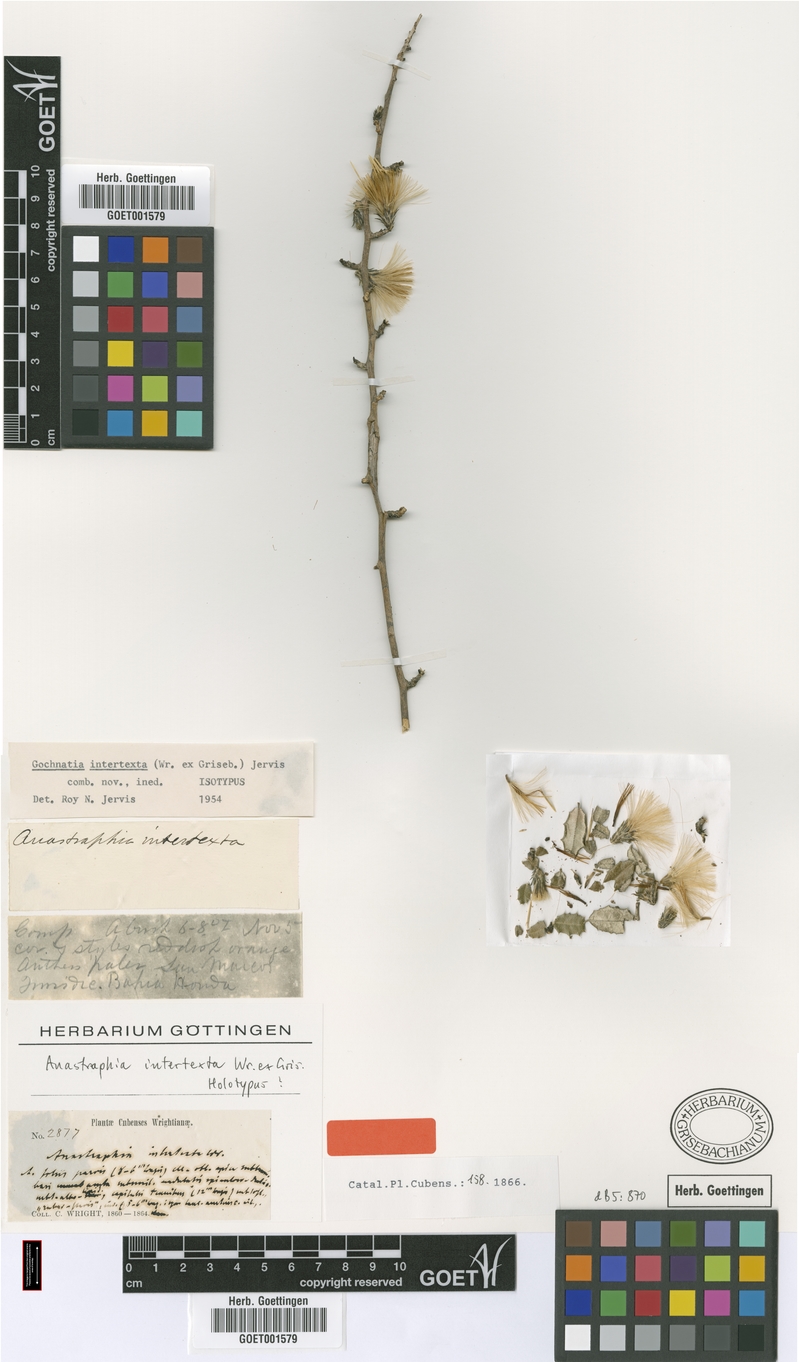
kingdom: Plantae
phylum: Tracheophyta
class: Magnoliopsida
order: Asterales
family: Asteraceae
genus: Anastraphia
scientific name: Anastraphia intertexta
